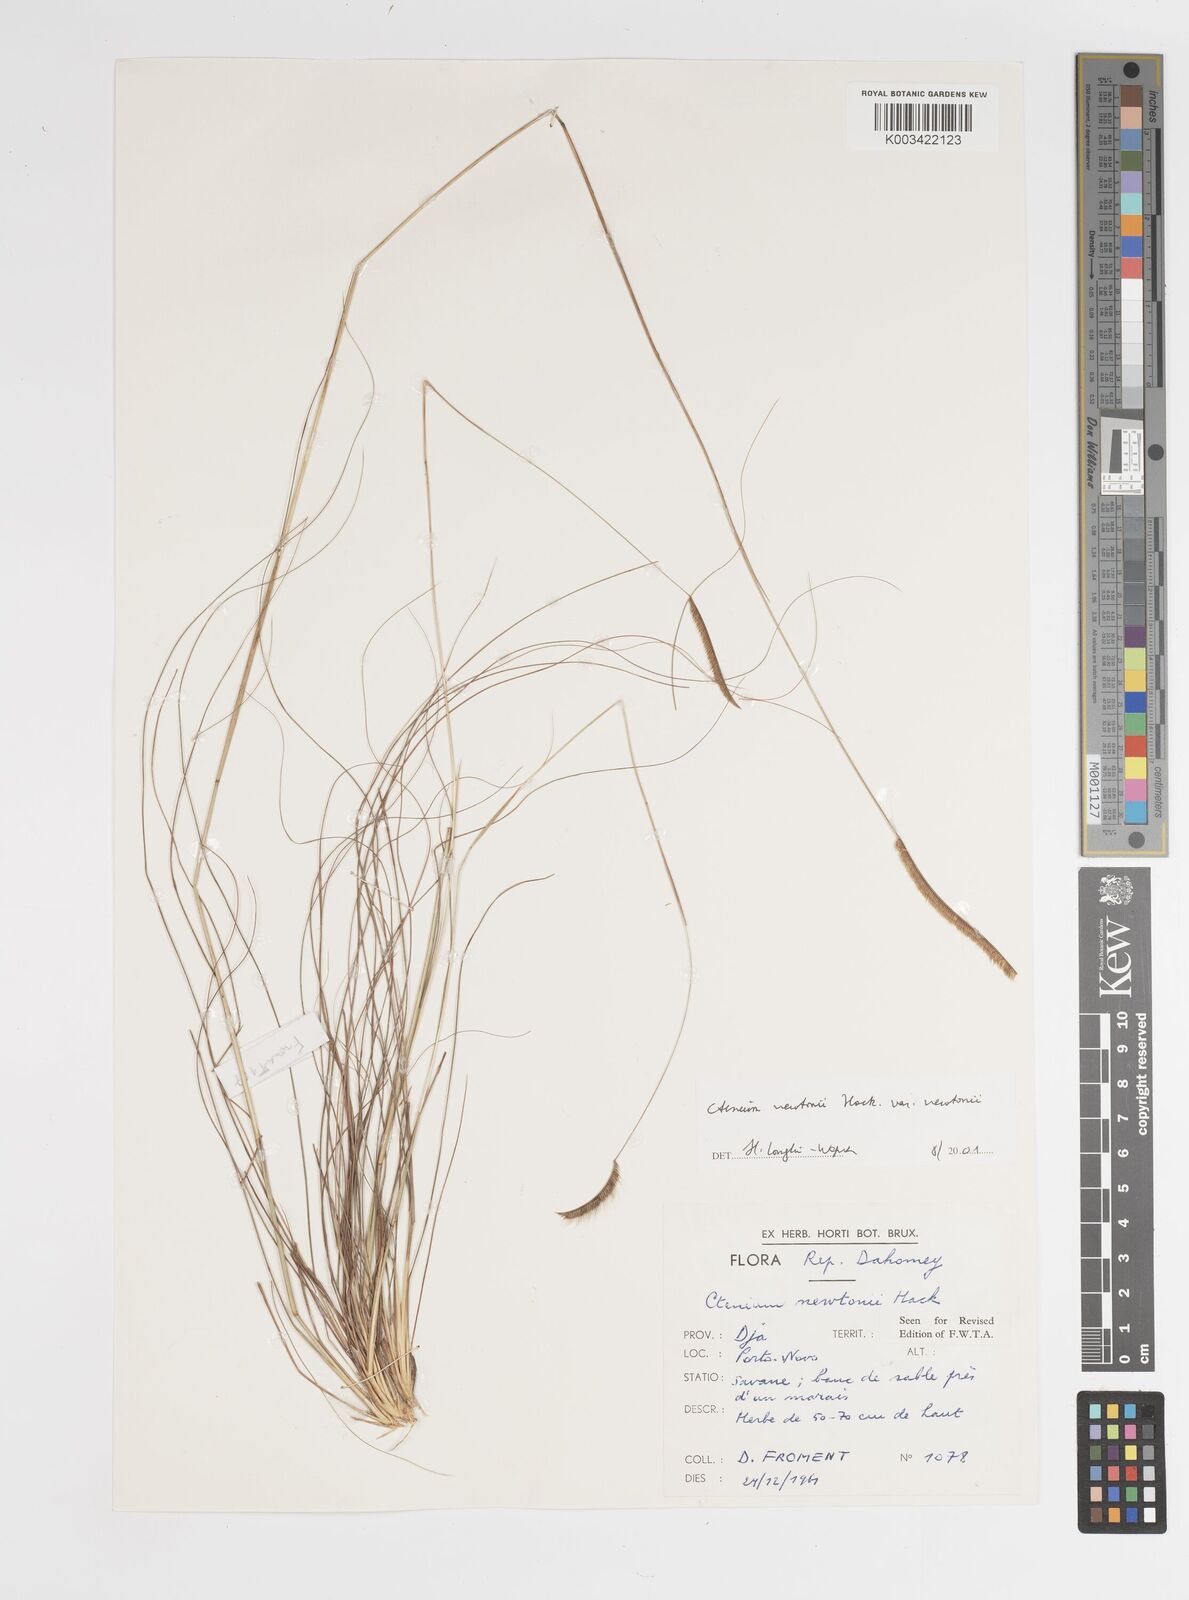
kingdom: Plantae
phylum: Tracheophyta
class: Liliopsida
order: Poales
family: Poaceae
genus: Ctenium
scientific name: Ctenium newtonii
